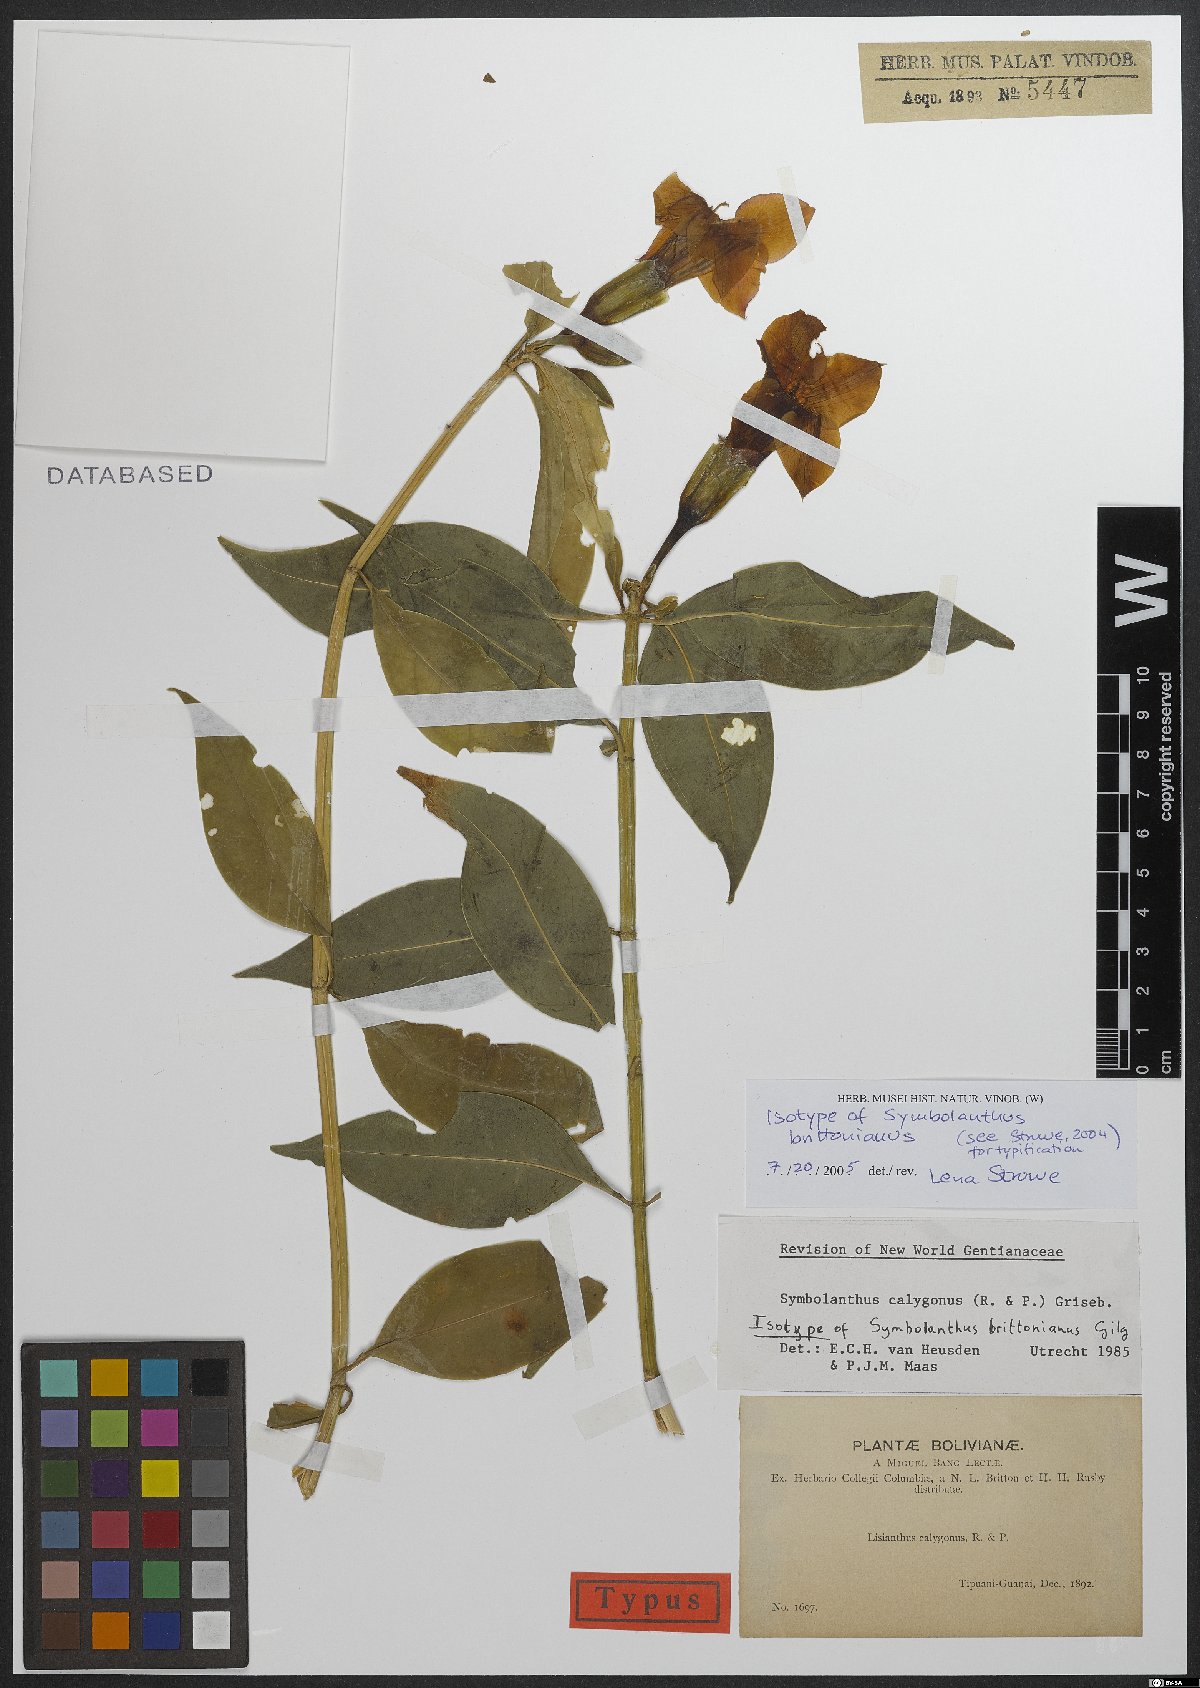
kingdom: Plantae
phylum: Tracheophyta
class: Magnoliopsida
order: Gentianales
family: Gentianaceae
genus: Symbolanthus
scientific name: Symbolanthus brittonianus
